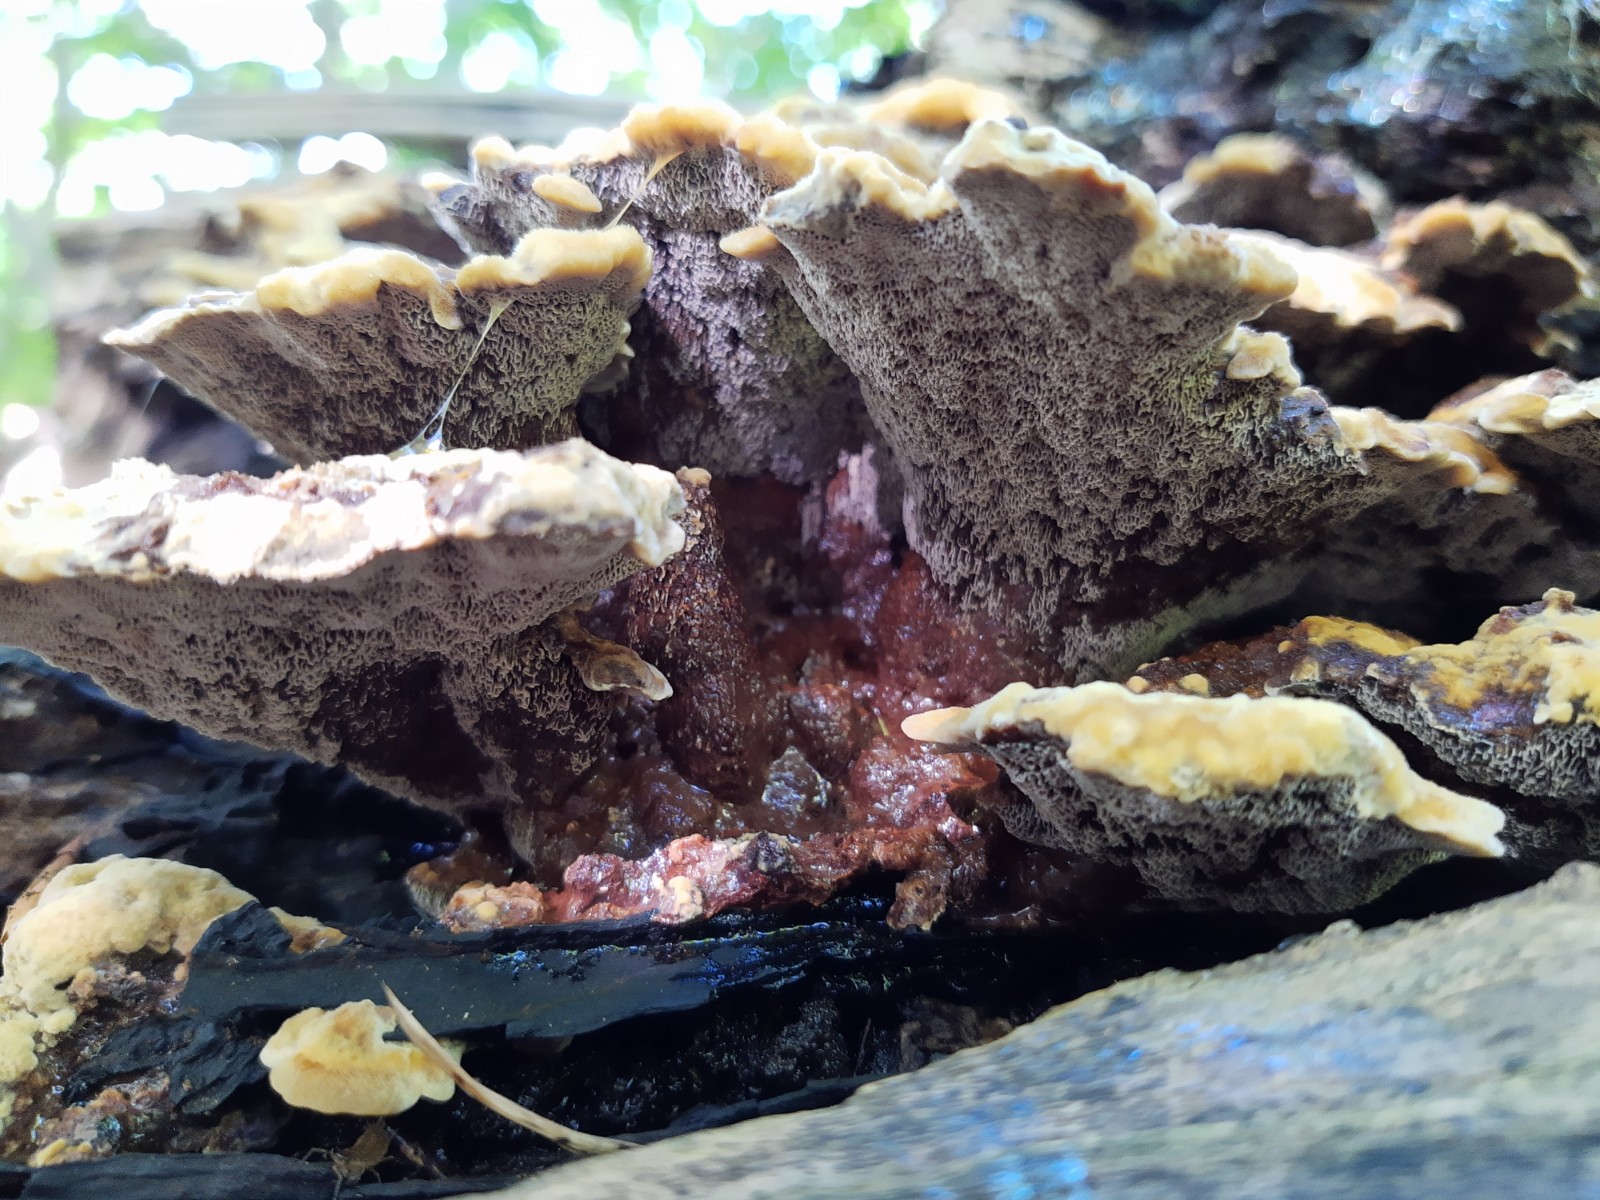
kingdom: Fungi
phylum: Basidiomycota
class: Agaricomycetes
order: Polyporales
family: Laetiporaceae
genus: Phaeolus
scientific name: Phaeolus schweinitzii
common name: brunporesvamp
